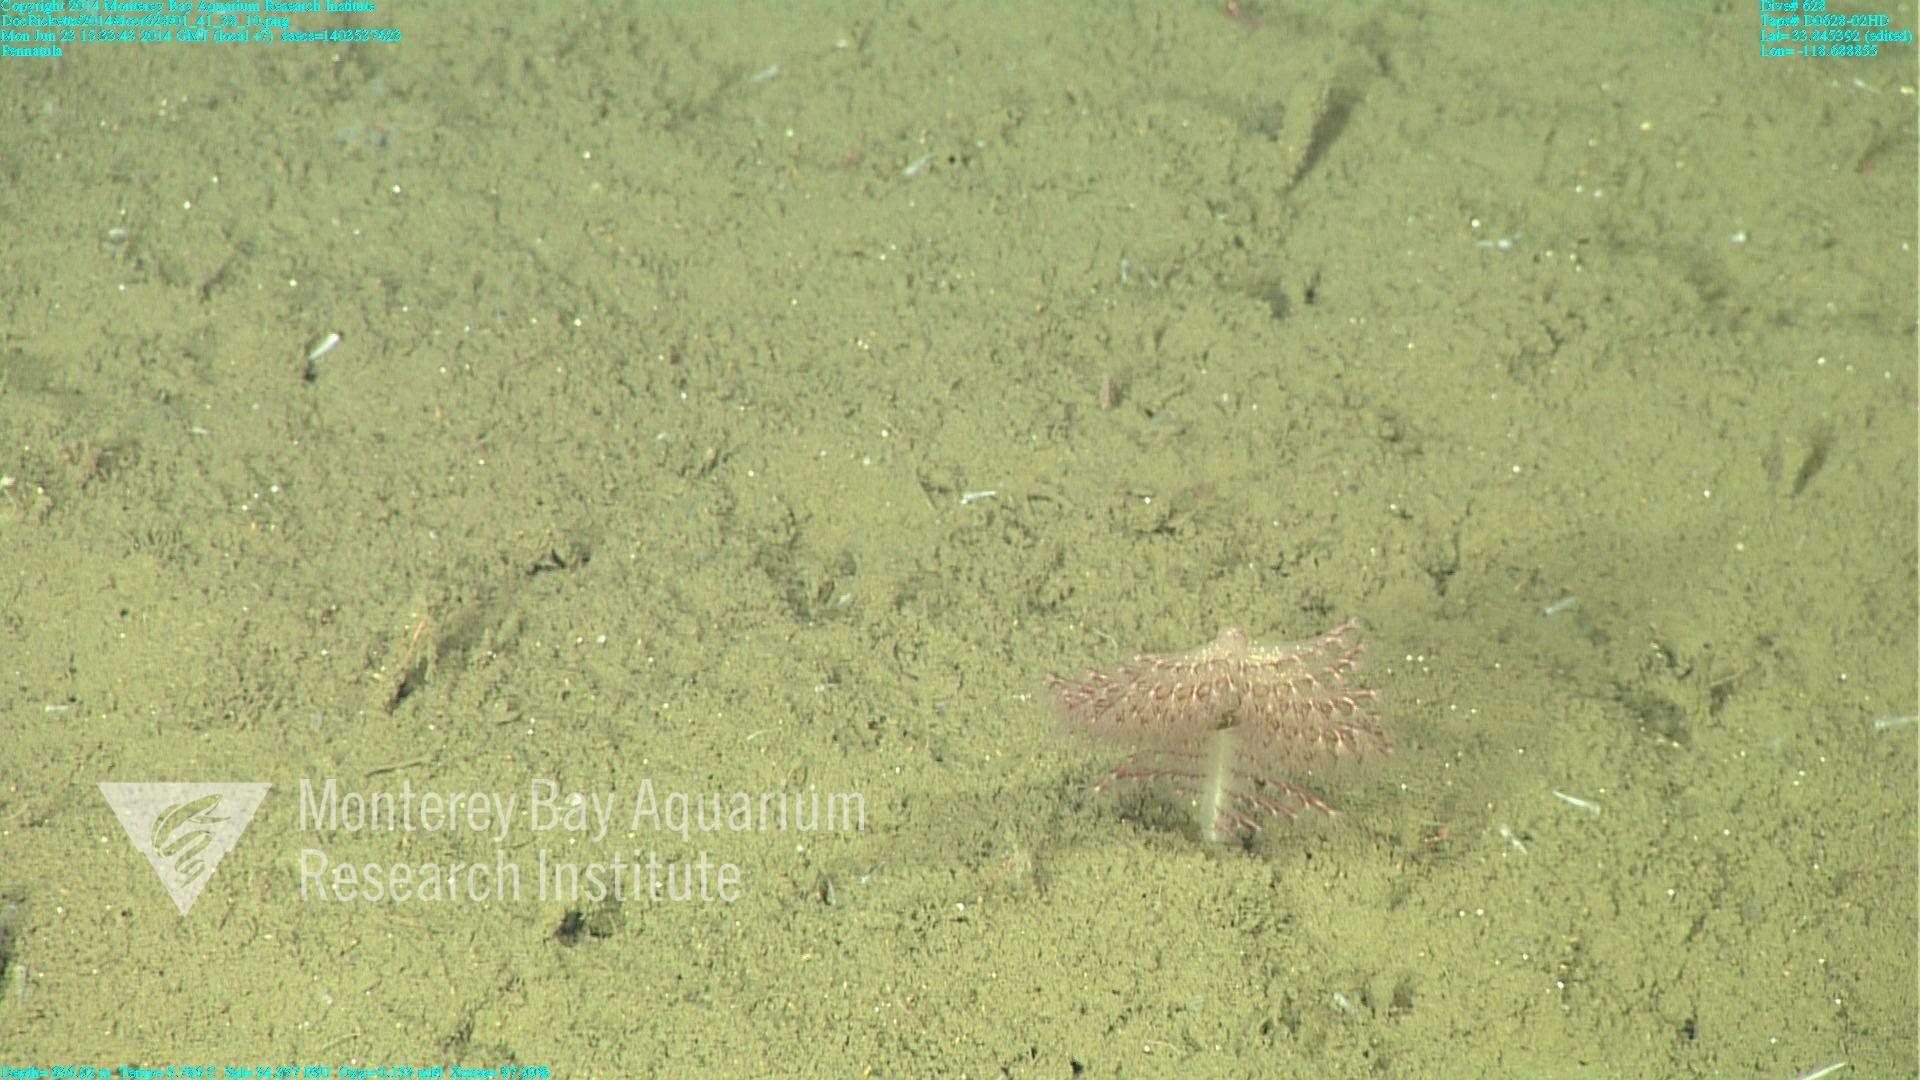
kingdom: Animalia
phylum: Cnidaria
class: Anthozoa
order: Scleralcyonacea
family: Pennatulidae
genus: Pennatula
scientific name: Pennatula
